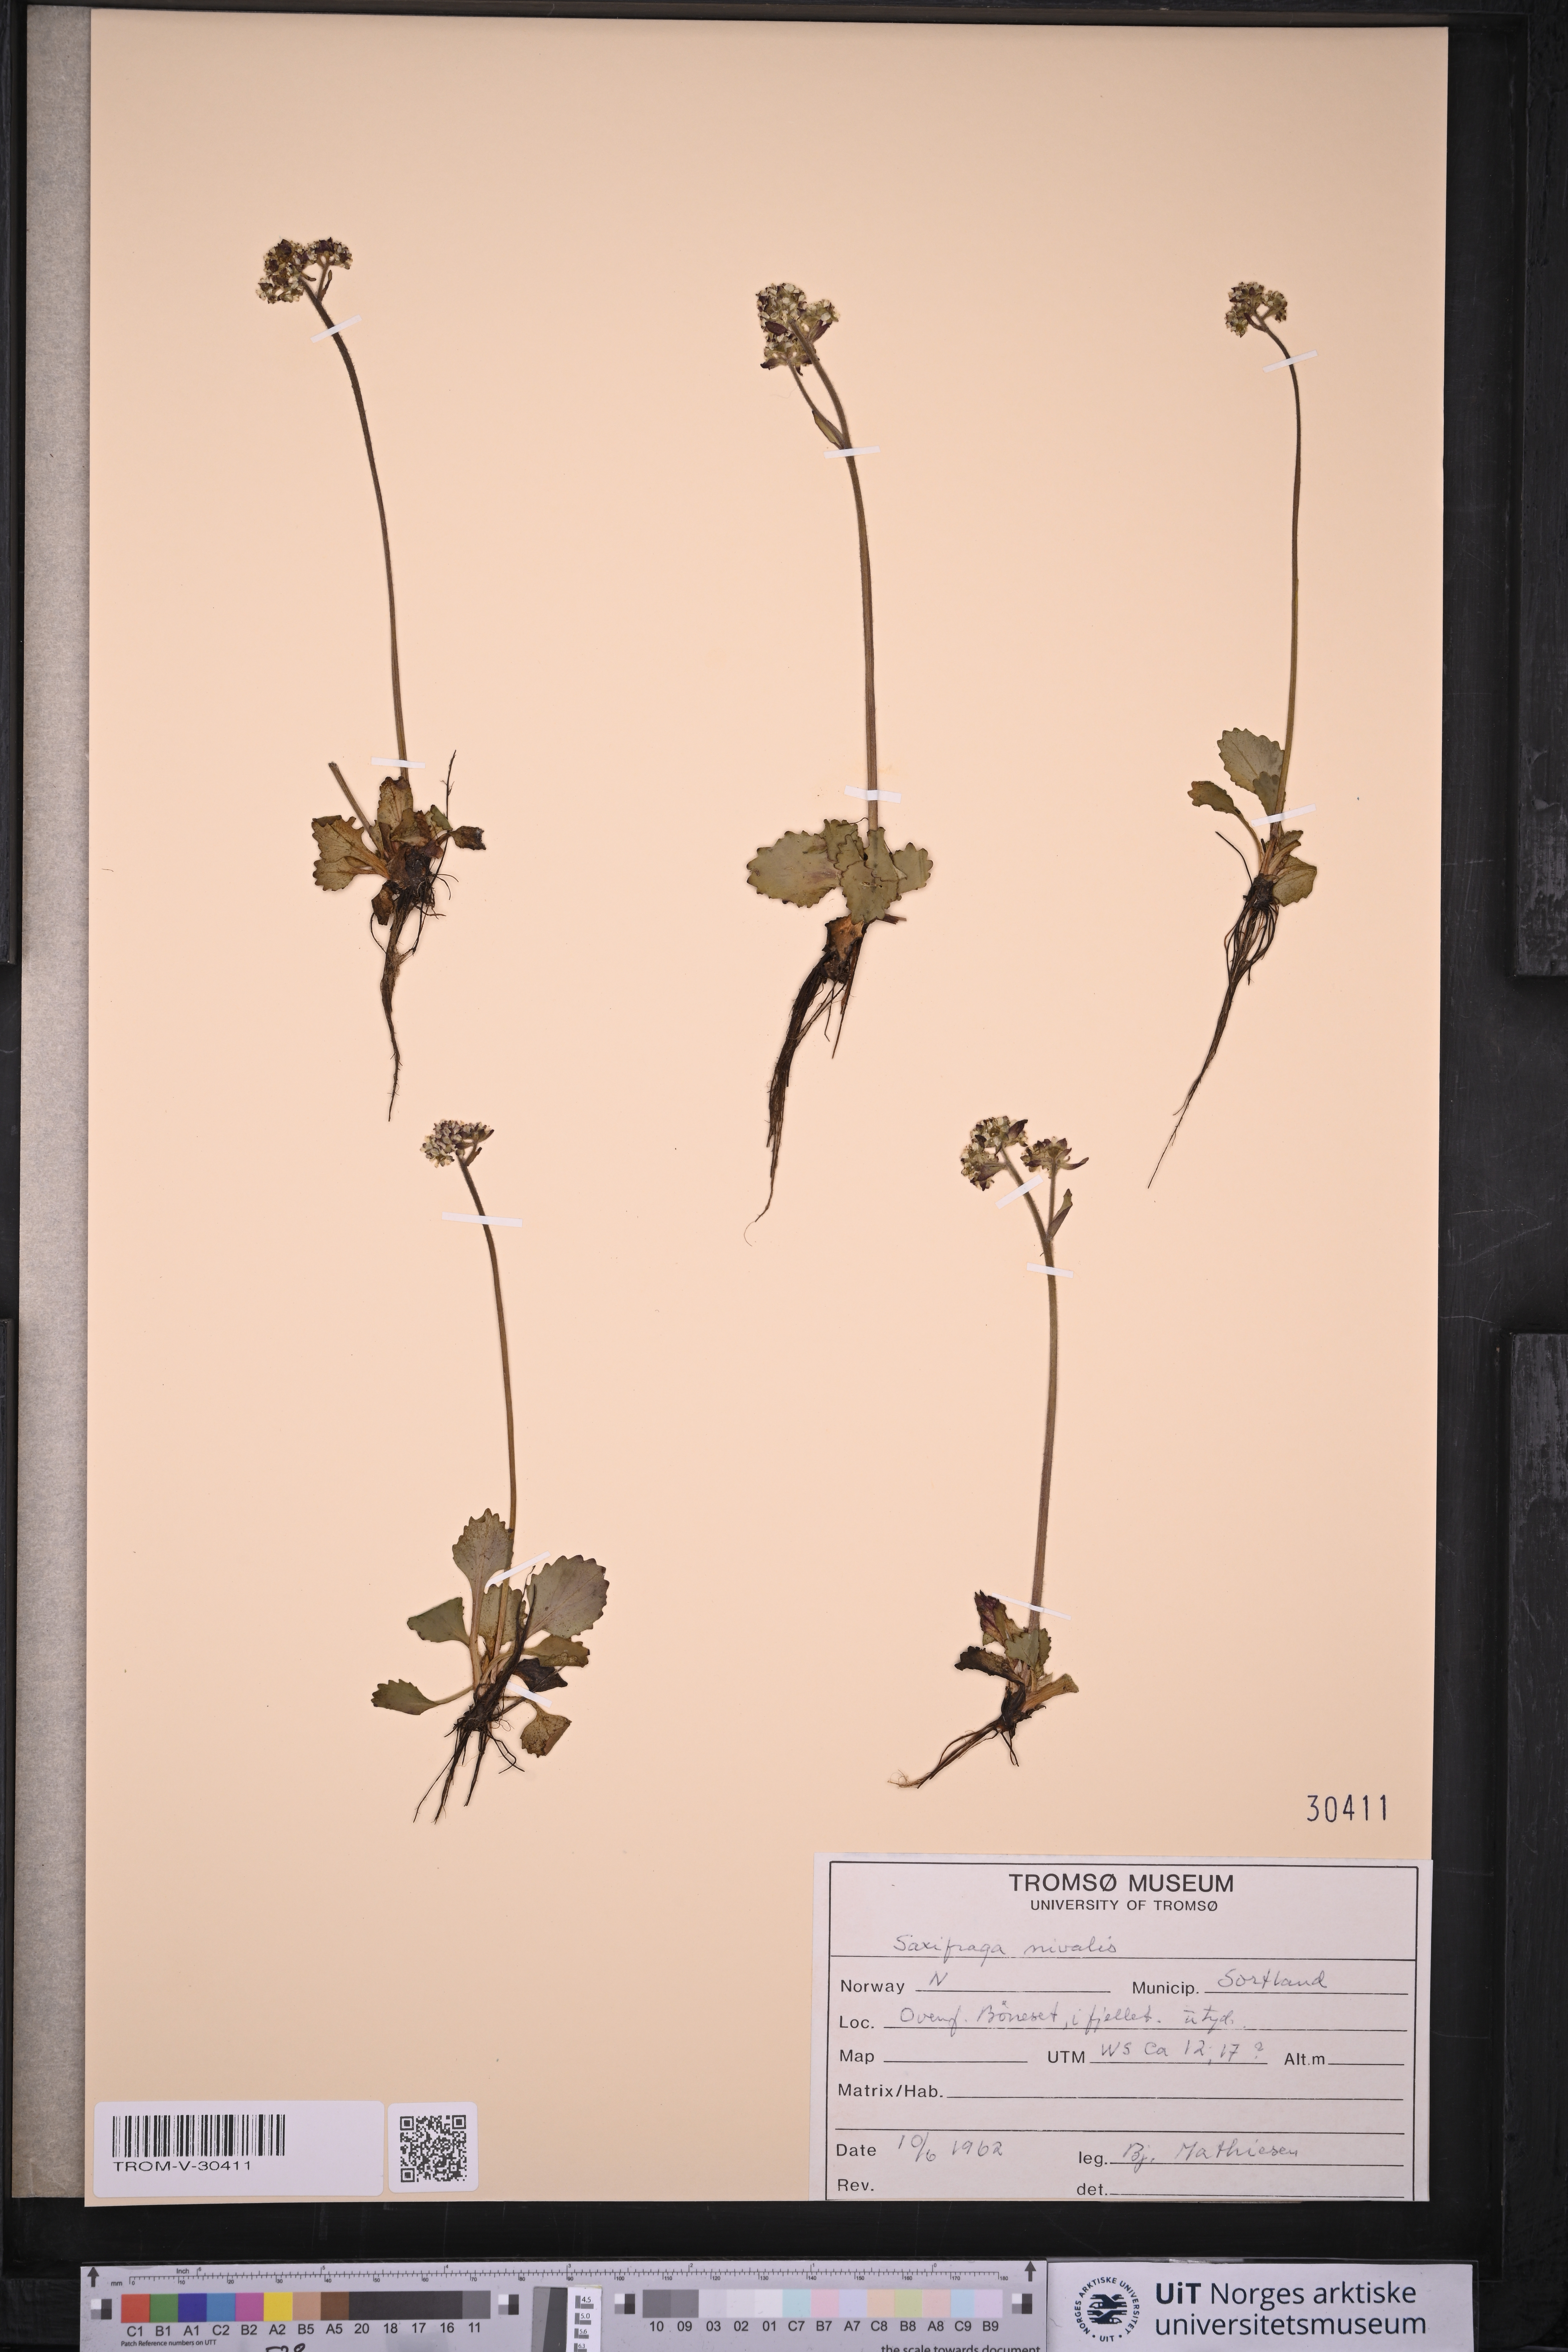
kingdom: Plantae
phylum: Tracheophyta
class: Magnoliopsida
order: Saxifragales
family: Saxifragaceae
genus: Micranthes
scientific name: Micranthes nivalis
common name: Alpine saxifrage
